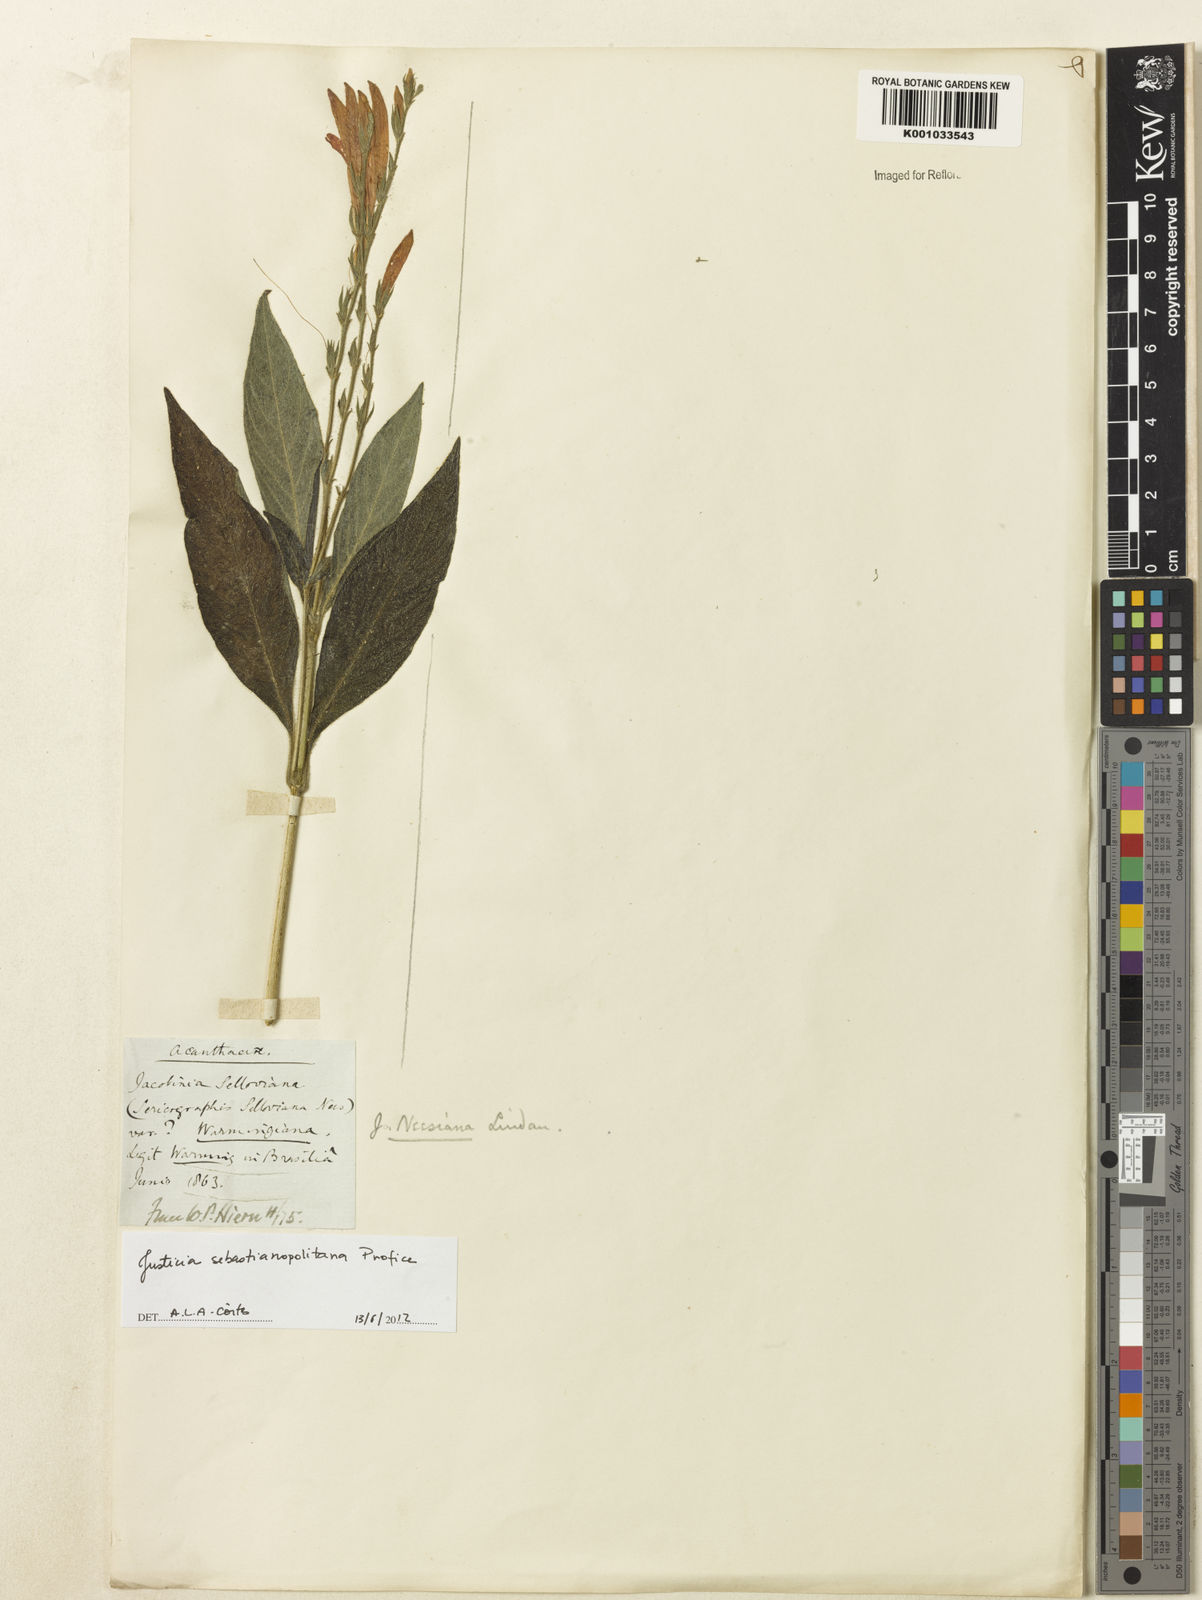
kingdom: Plantae
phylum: Tracheophyta
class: Magnoliopsida
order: Lamiales
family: Acanthaceae
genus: Justicia
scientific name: Justicia sebastianopolitanae
